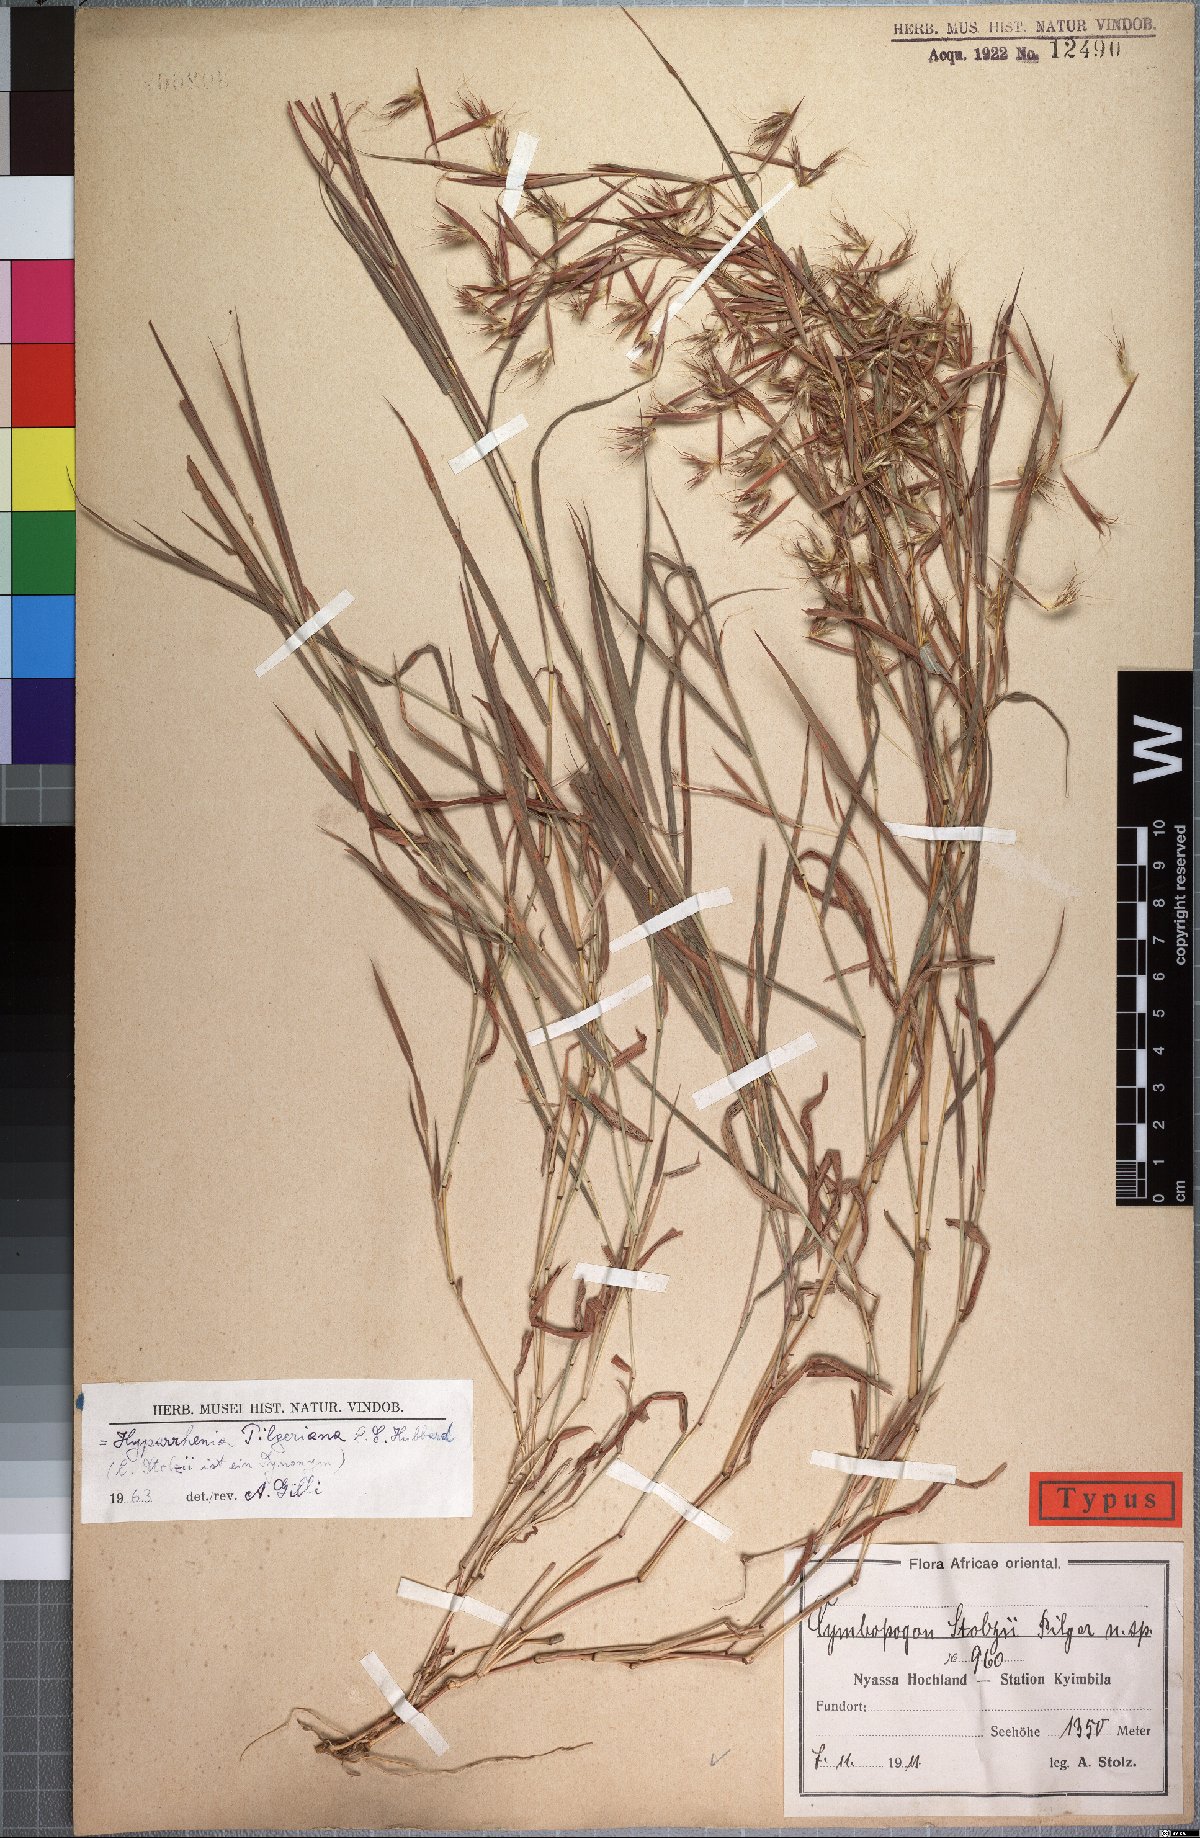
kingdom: Plantae
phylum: Tracheophyta
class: Liliopsida
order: Poales
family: Poaceae
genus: Hyparrhenia
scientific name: Hyparrhenia pilgeriana
